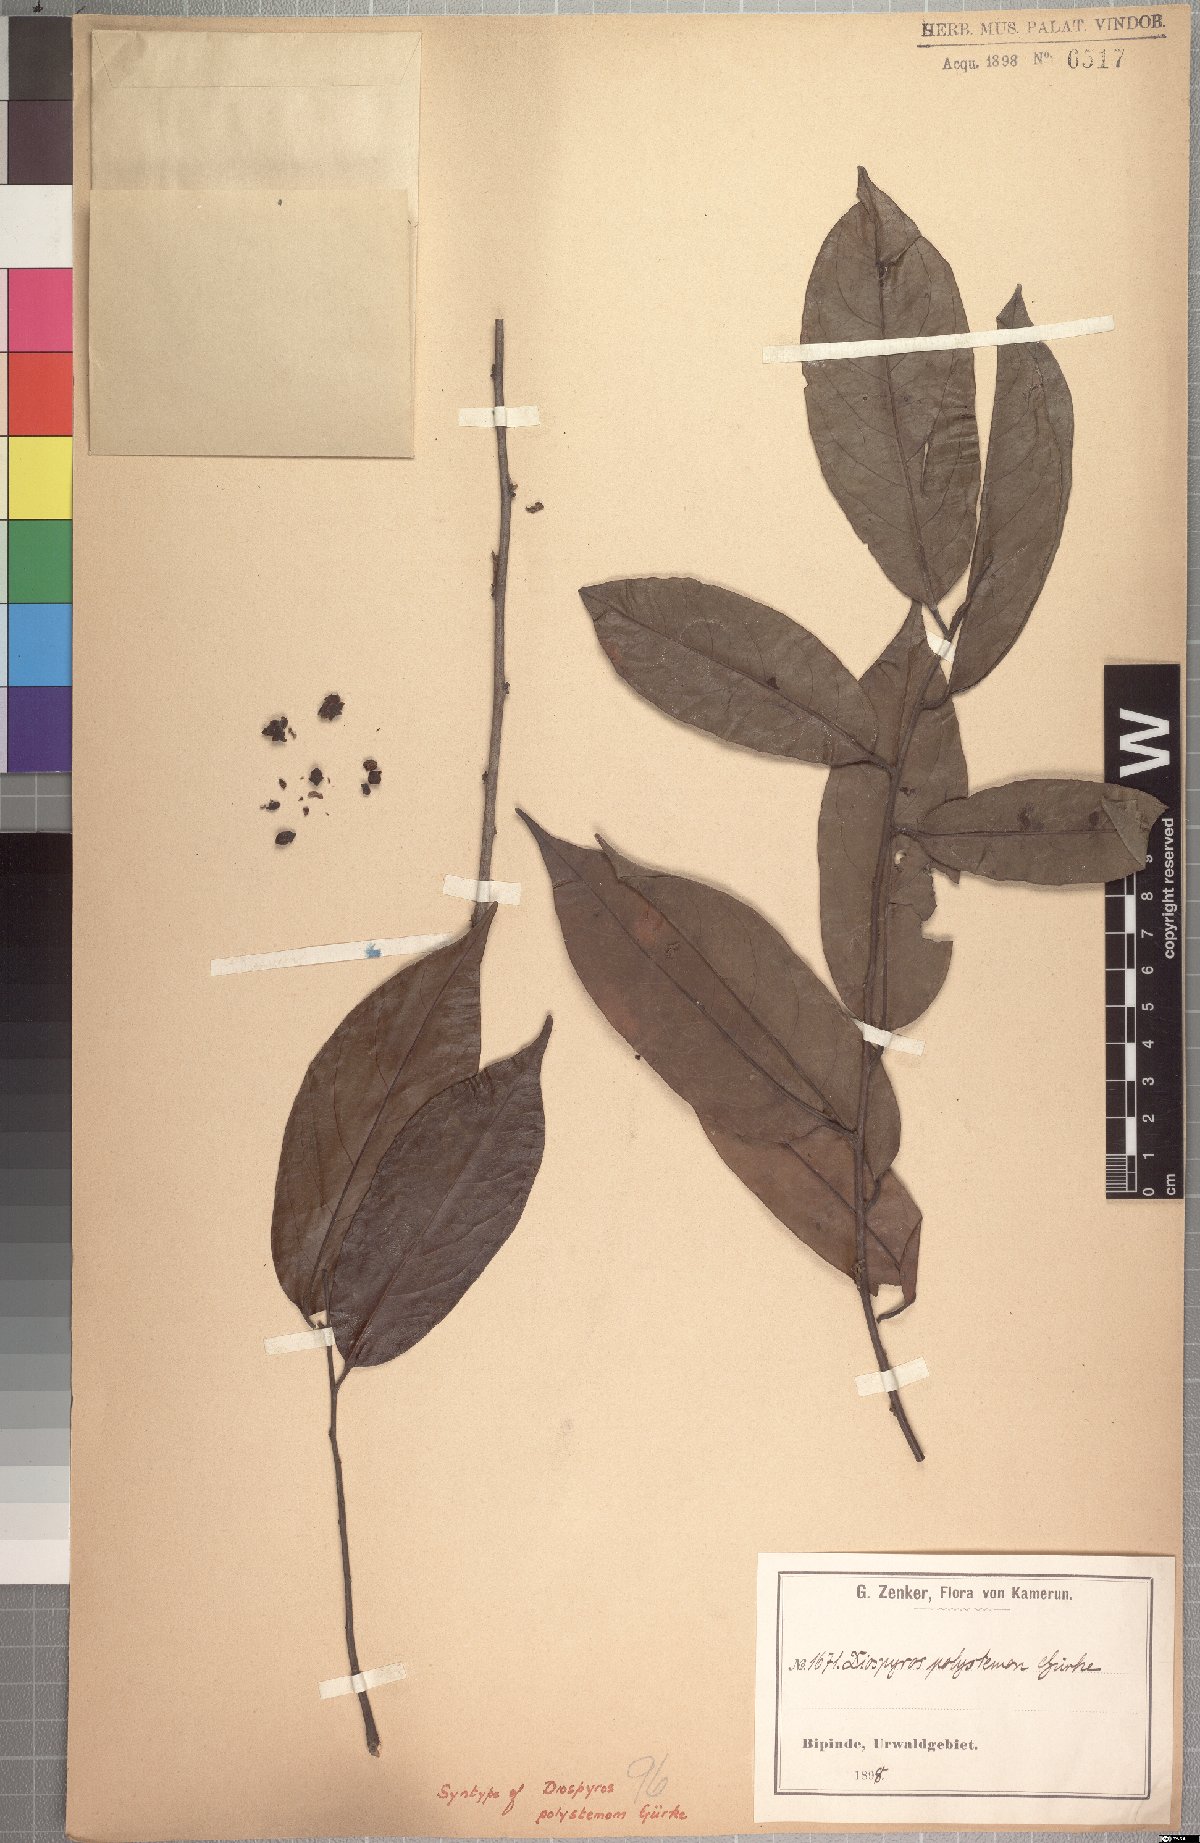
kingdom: Plantae
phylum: Tracheophyta
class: Magnoliopsida
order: Ericales
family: Ebenaceae
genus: Diospyros
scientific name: Diospyros polystemon
